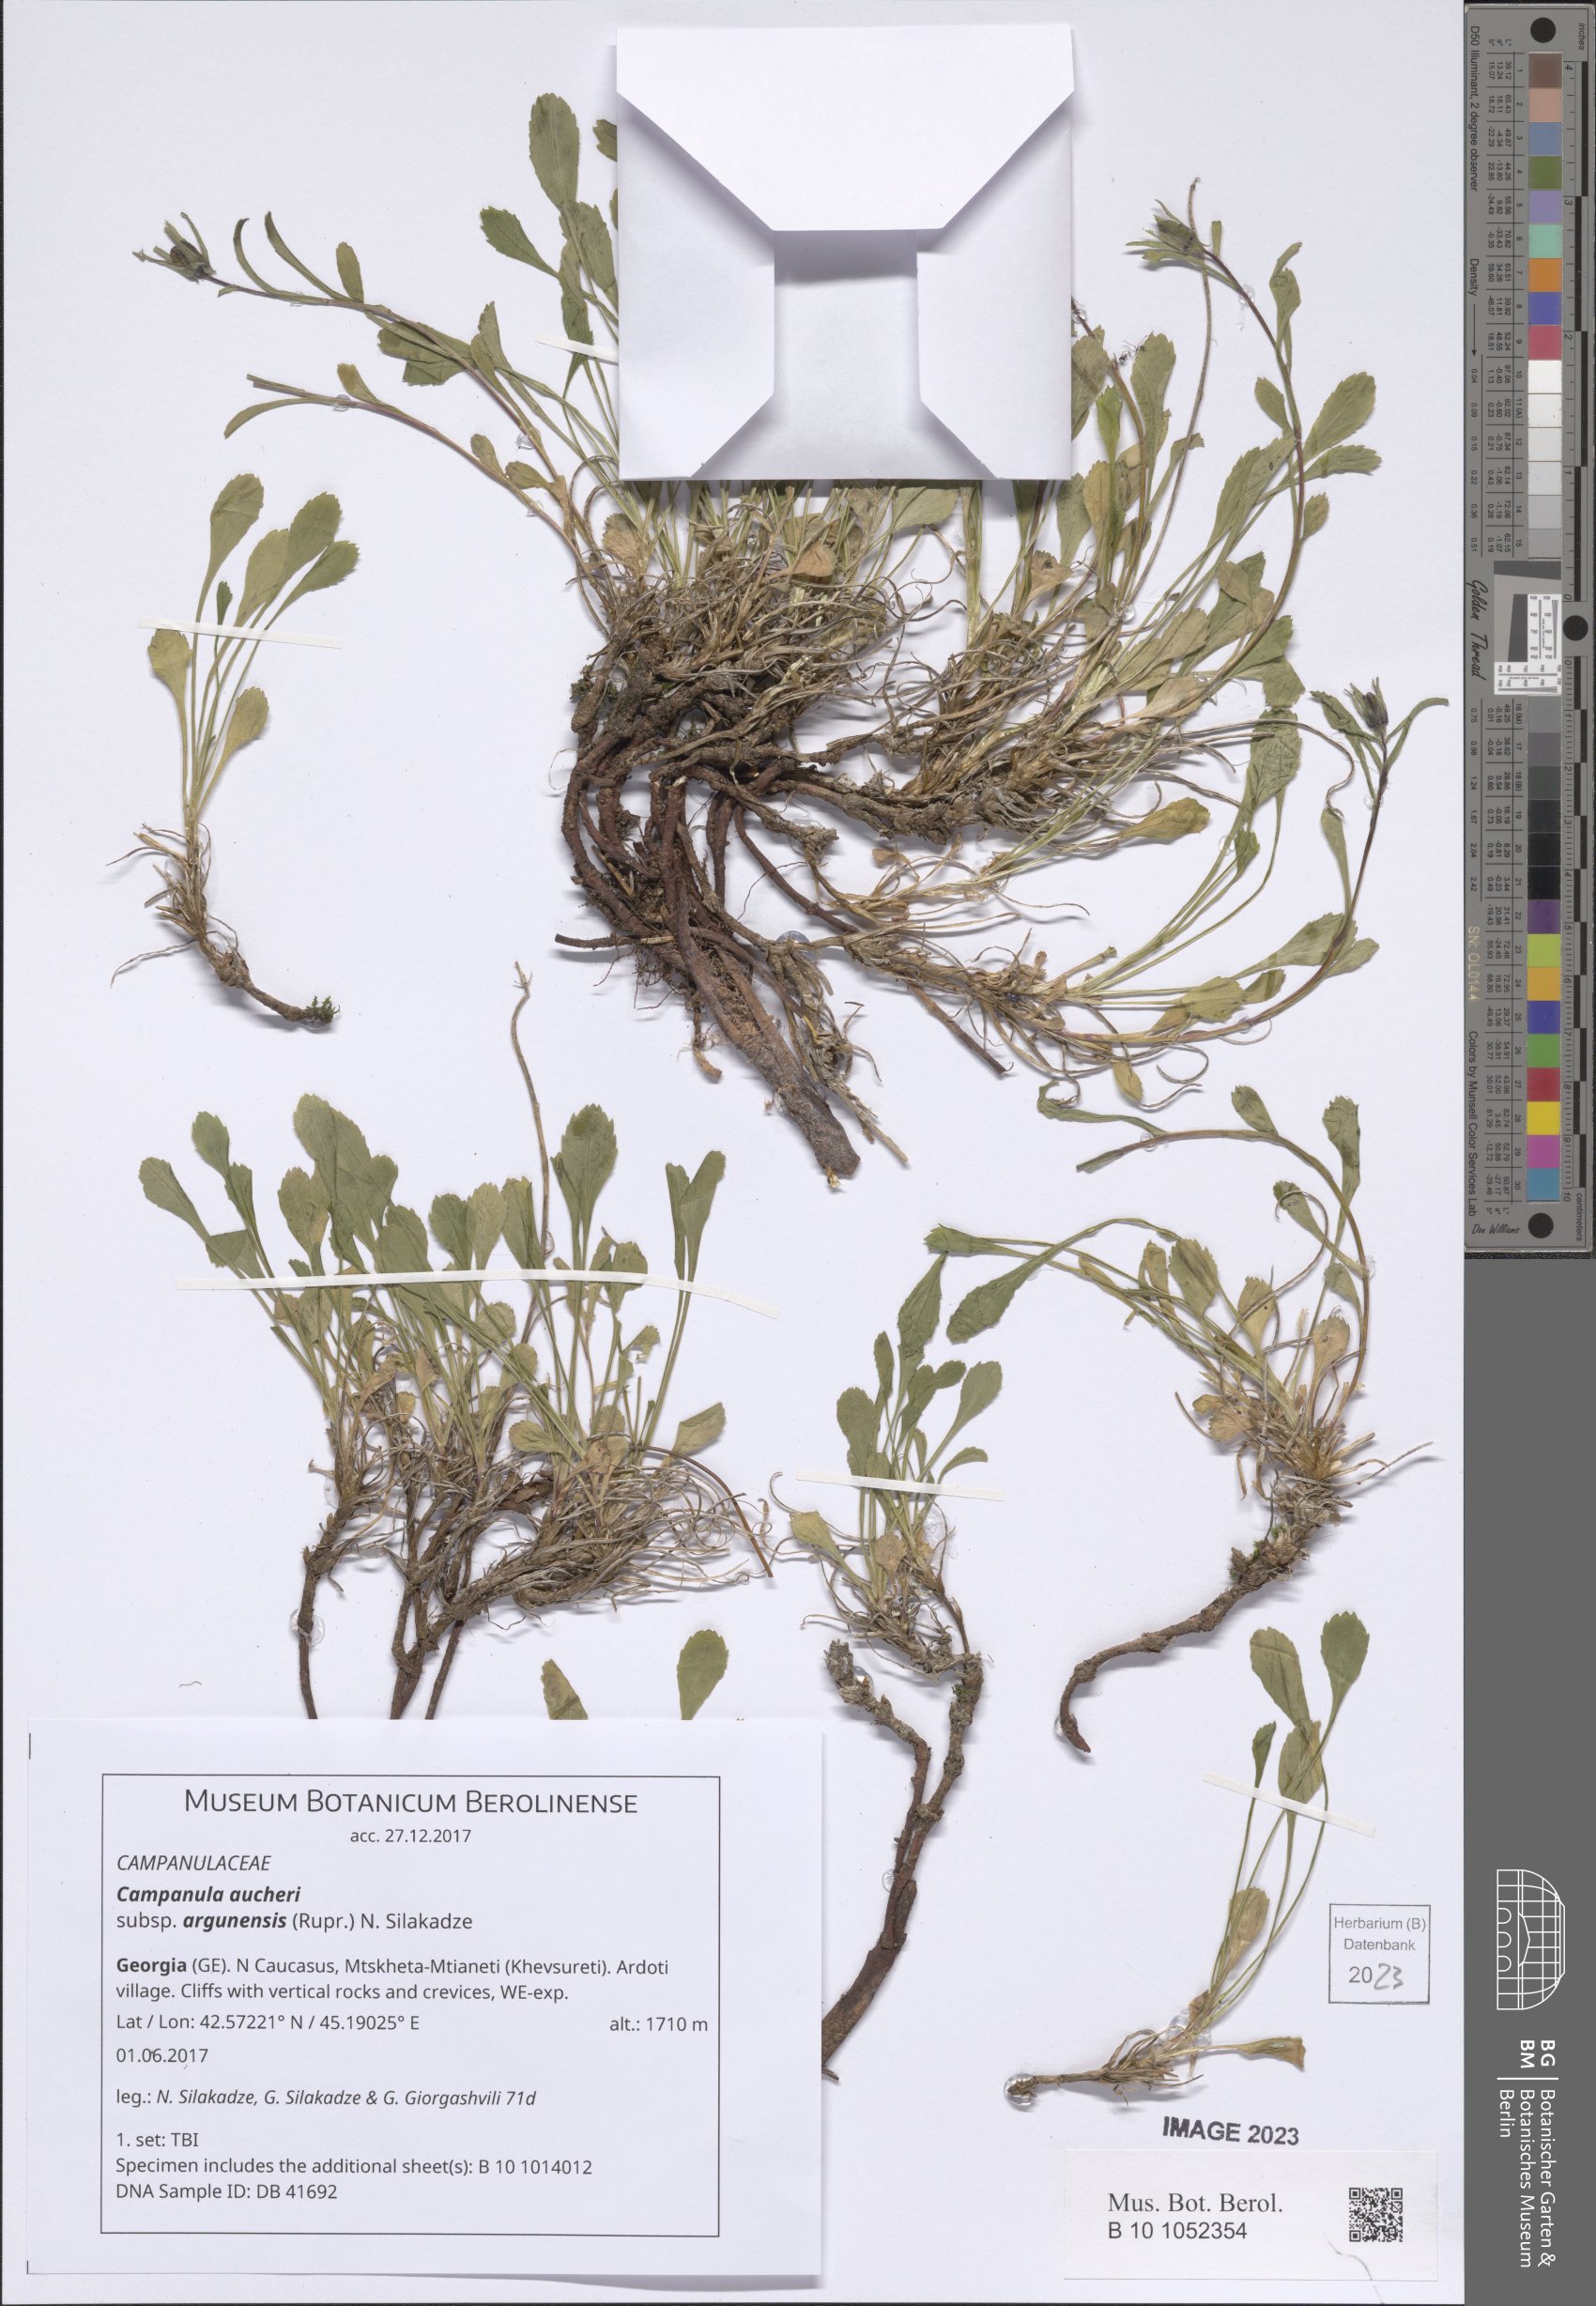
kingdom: Plantae
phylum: Tracheophyta
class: Magnoliopsida
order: Asterales
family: Campanulaceae
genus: Campanula
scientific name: Campanula saxifraga
